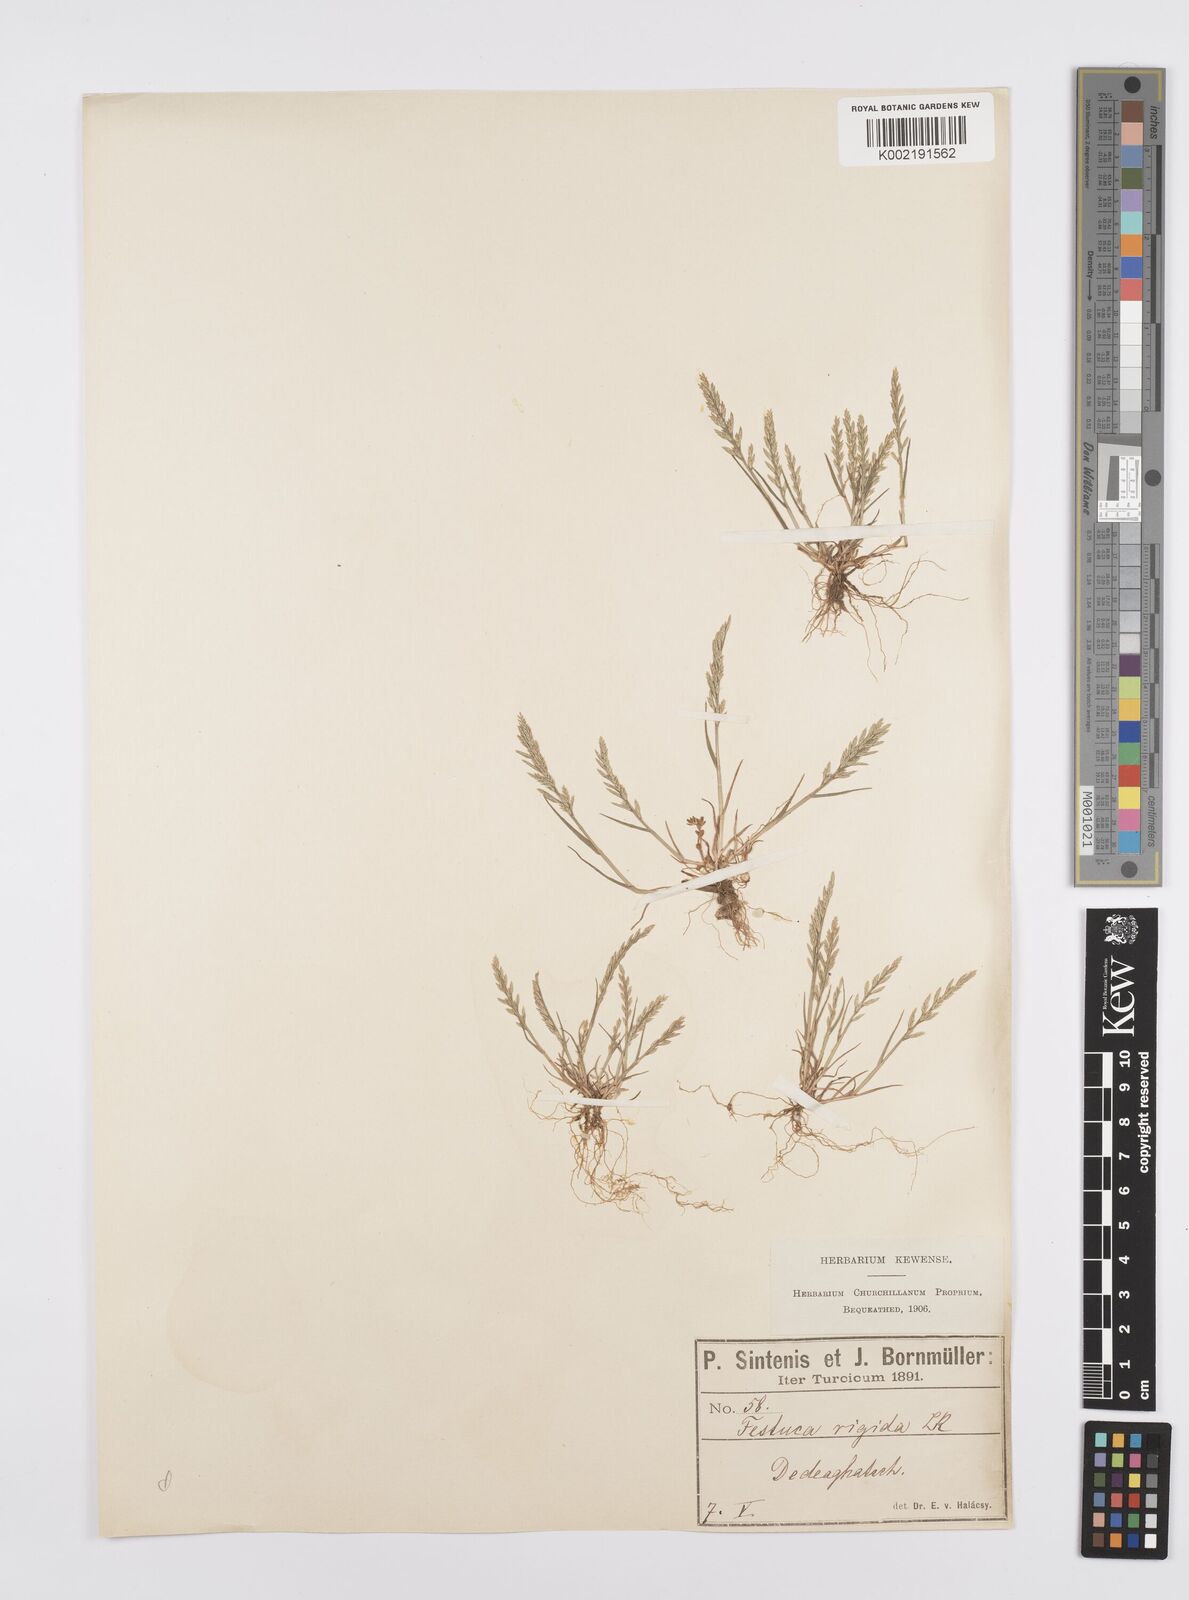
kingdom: Plantae
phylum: Tracheophyta
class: Liliopsida
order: Poales
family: Poaceae
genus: Catapodium
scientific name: Catapodium rigidum
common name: Fern-grass
